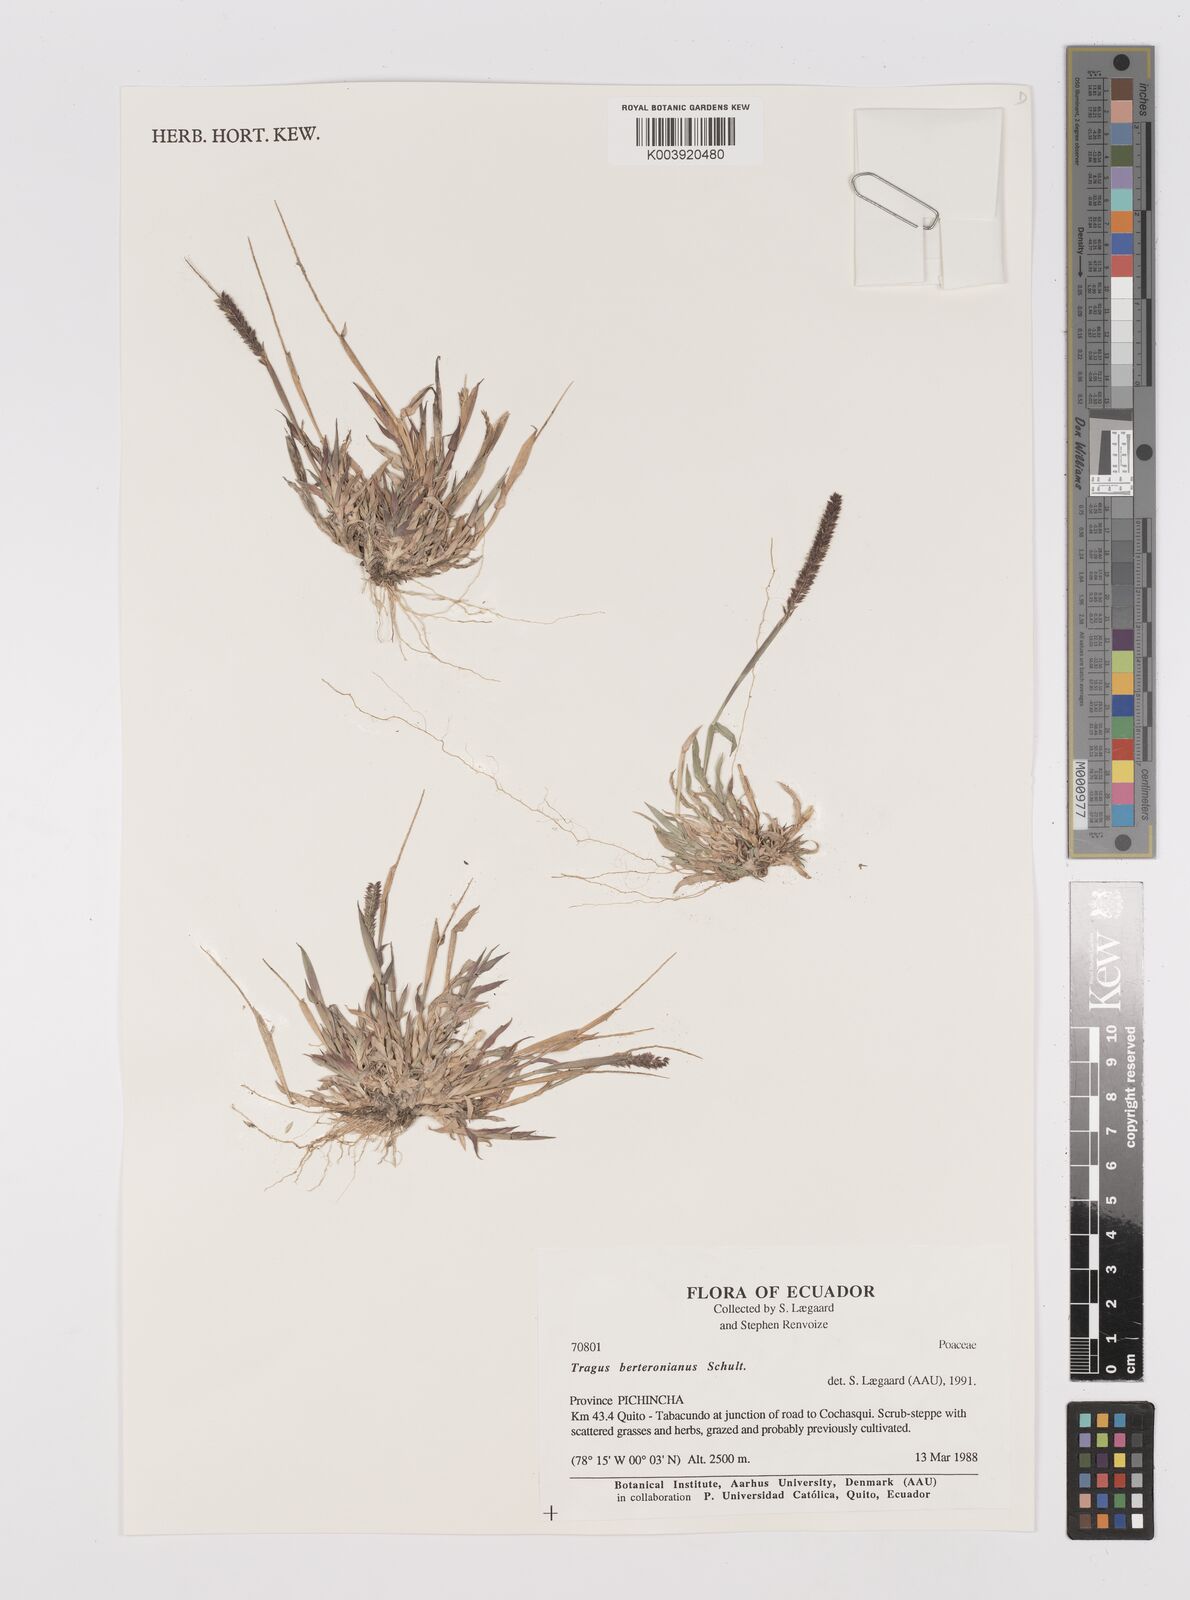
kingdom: Plantae
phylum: Tracheophyta
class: Liliopsida
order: Poales
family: Poaceae
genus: Tragus
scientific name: Tragus berteronianus
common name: African bur-grass
